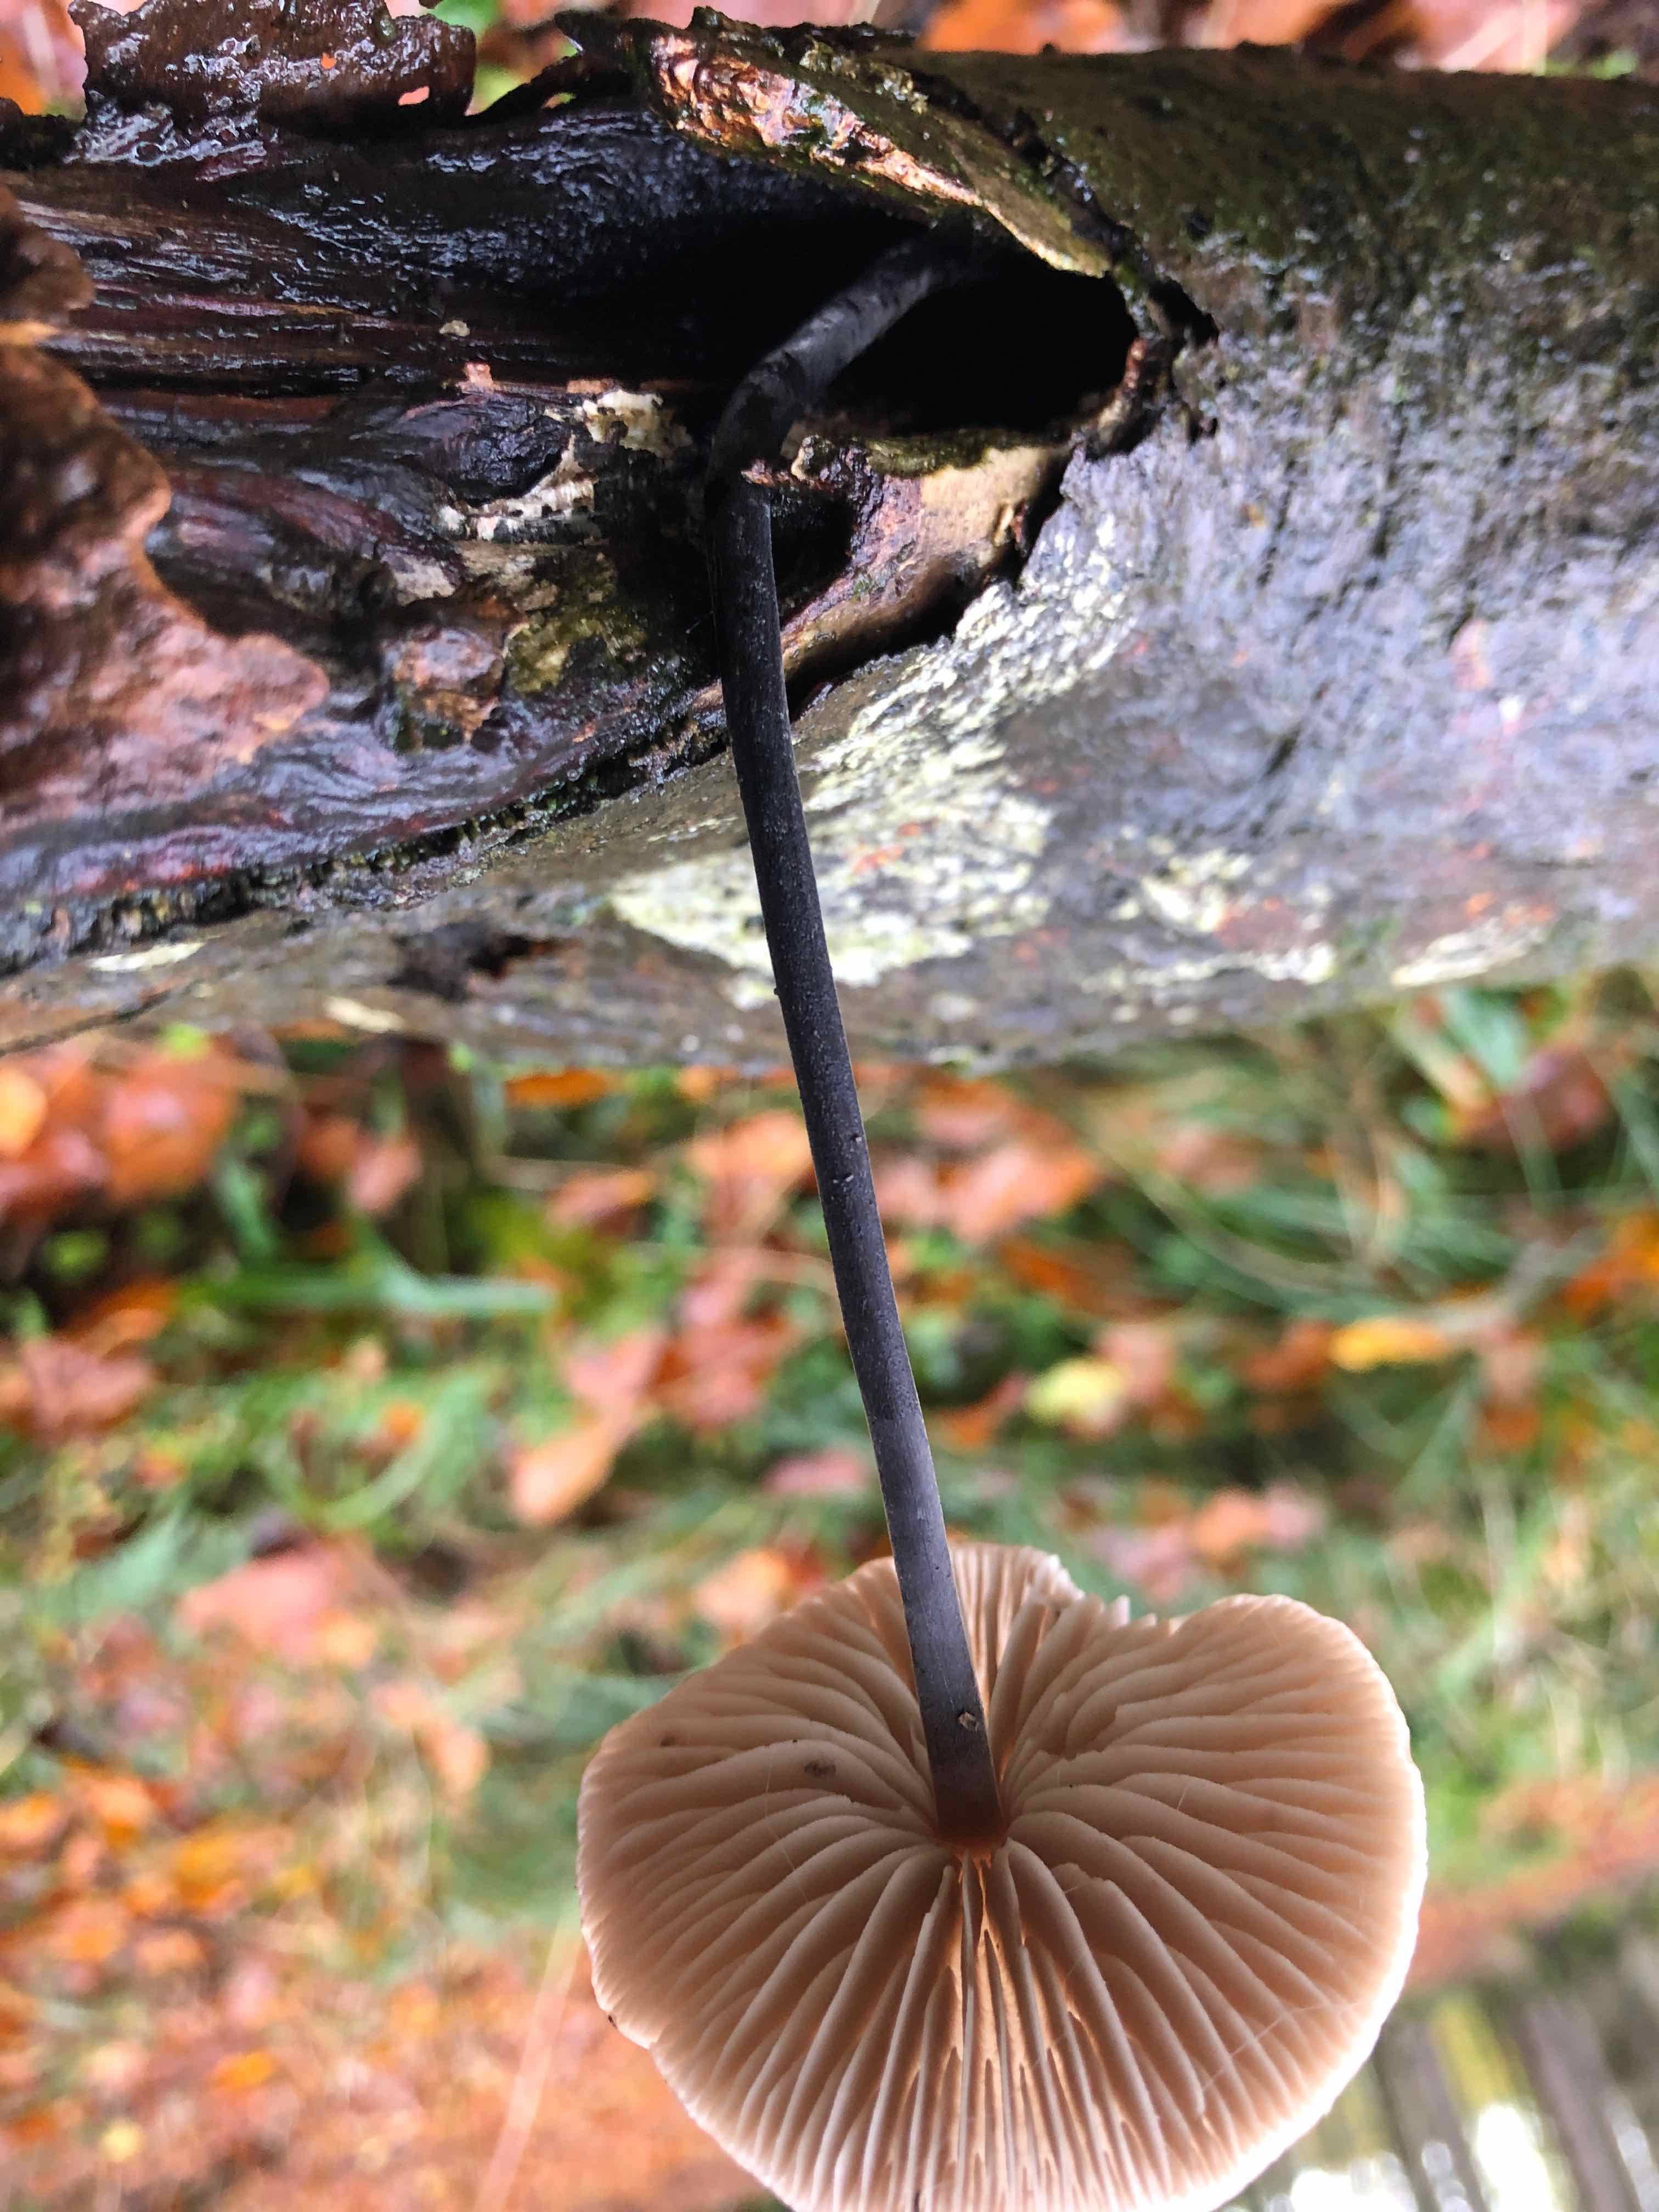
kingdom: Fungi
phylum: Basidiomycota
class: Agaricomycetes
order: Agaricales
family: Omphalotaceae
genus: Mycetinis
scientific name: Mycetinis alliaceus
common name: stor løghat
